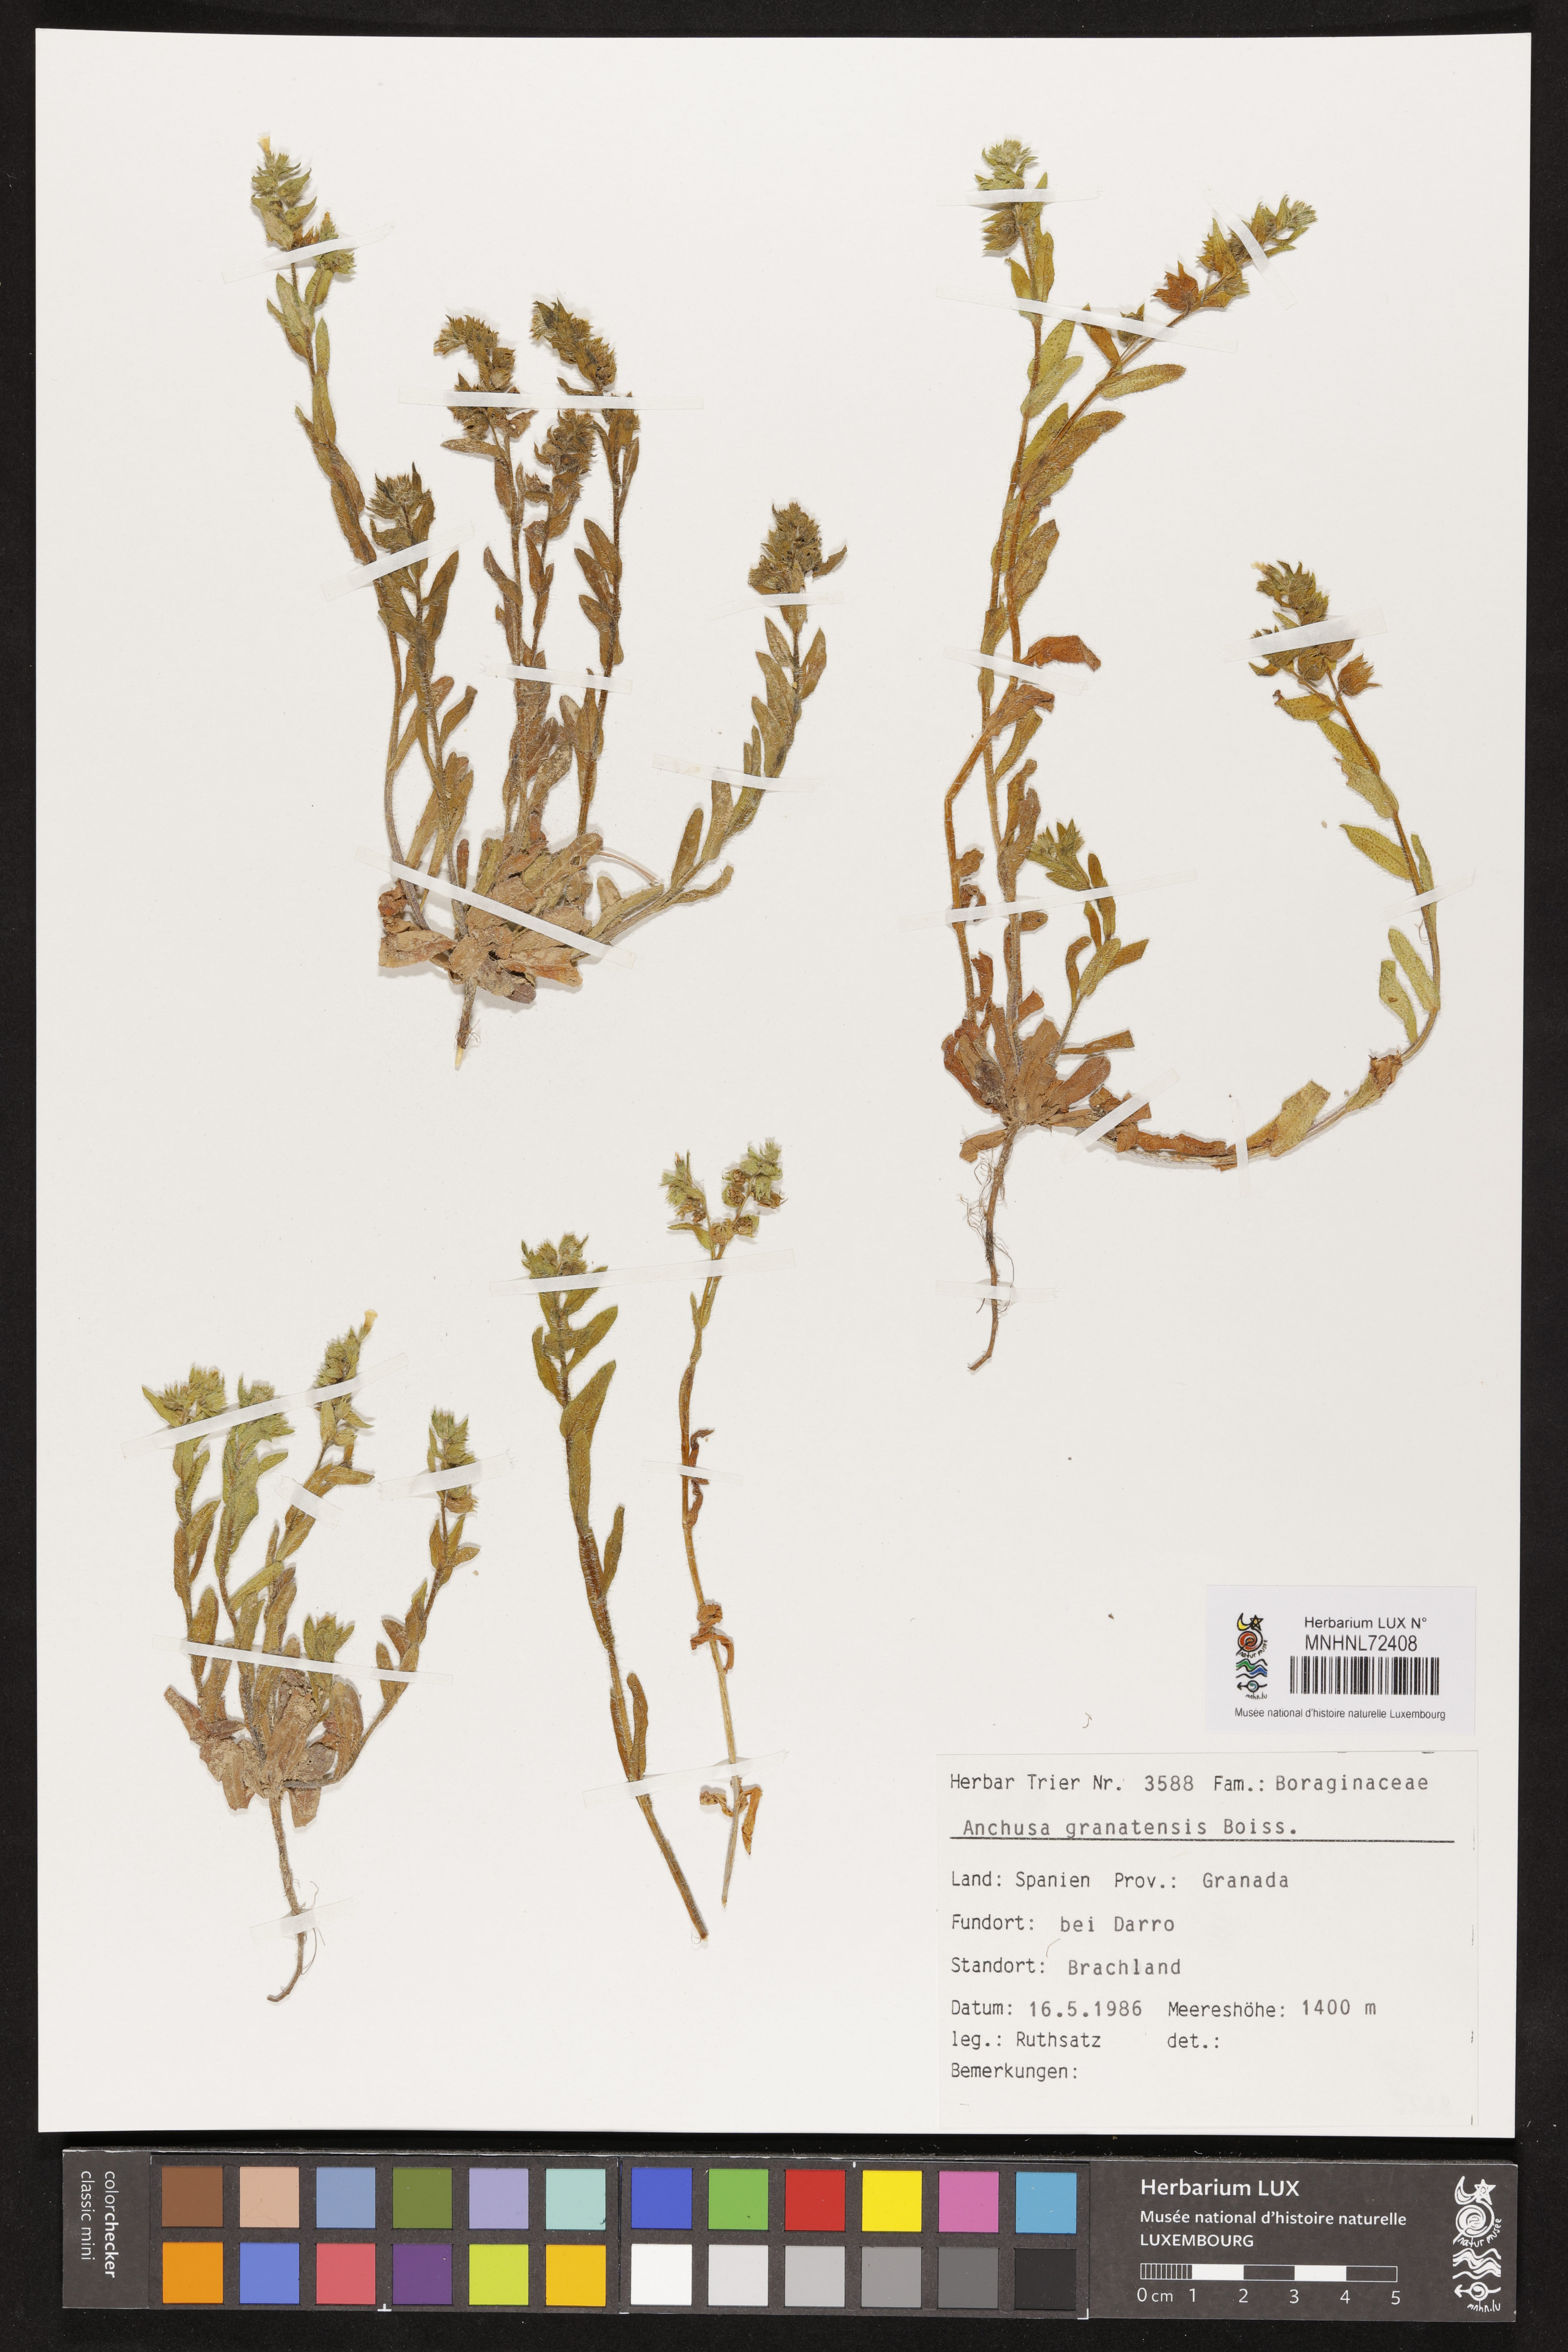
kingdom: Plantae
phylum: Tracheophyta
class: Magnoliopsida
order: Boraginales
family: Boraginaceae
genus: Anchusa
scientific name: Anchusa undulata
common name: Undulate alkanet
